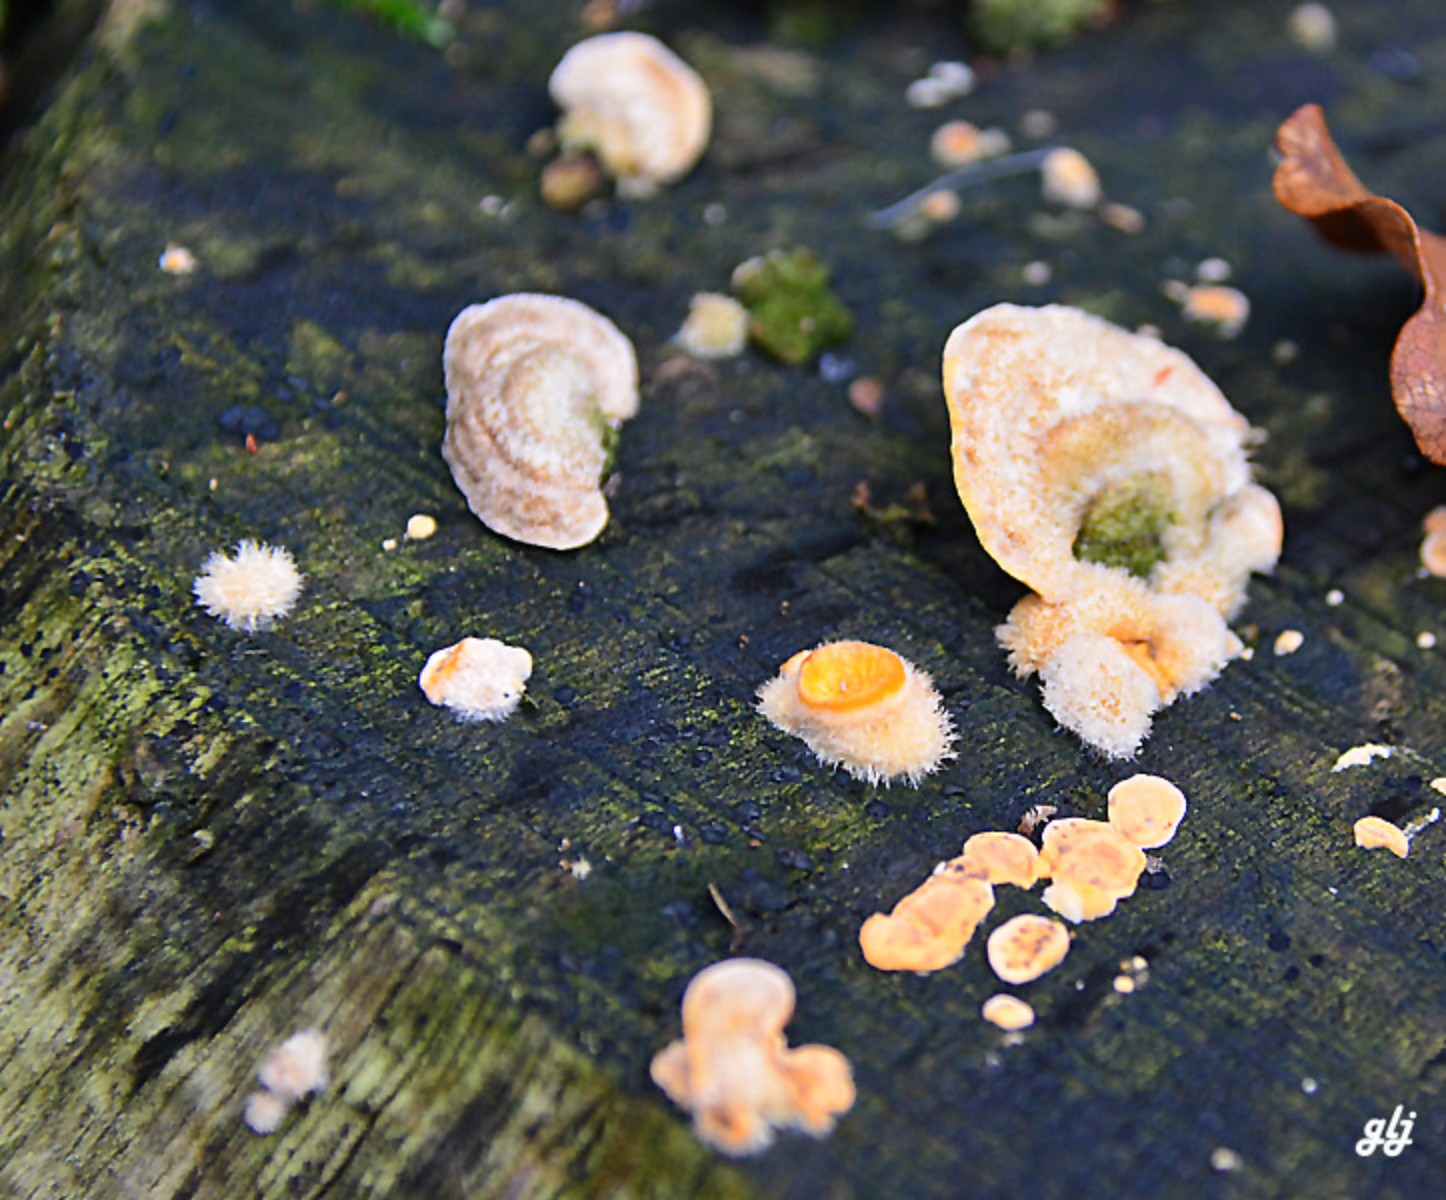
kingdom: Fungi
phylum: Basidiomycota
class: Agaricomycetes
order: Russulales
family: Stereaceae
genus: Stereum
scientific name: Stereum hirsutum
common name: håret lædersvamp
